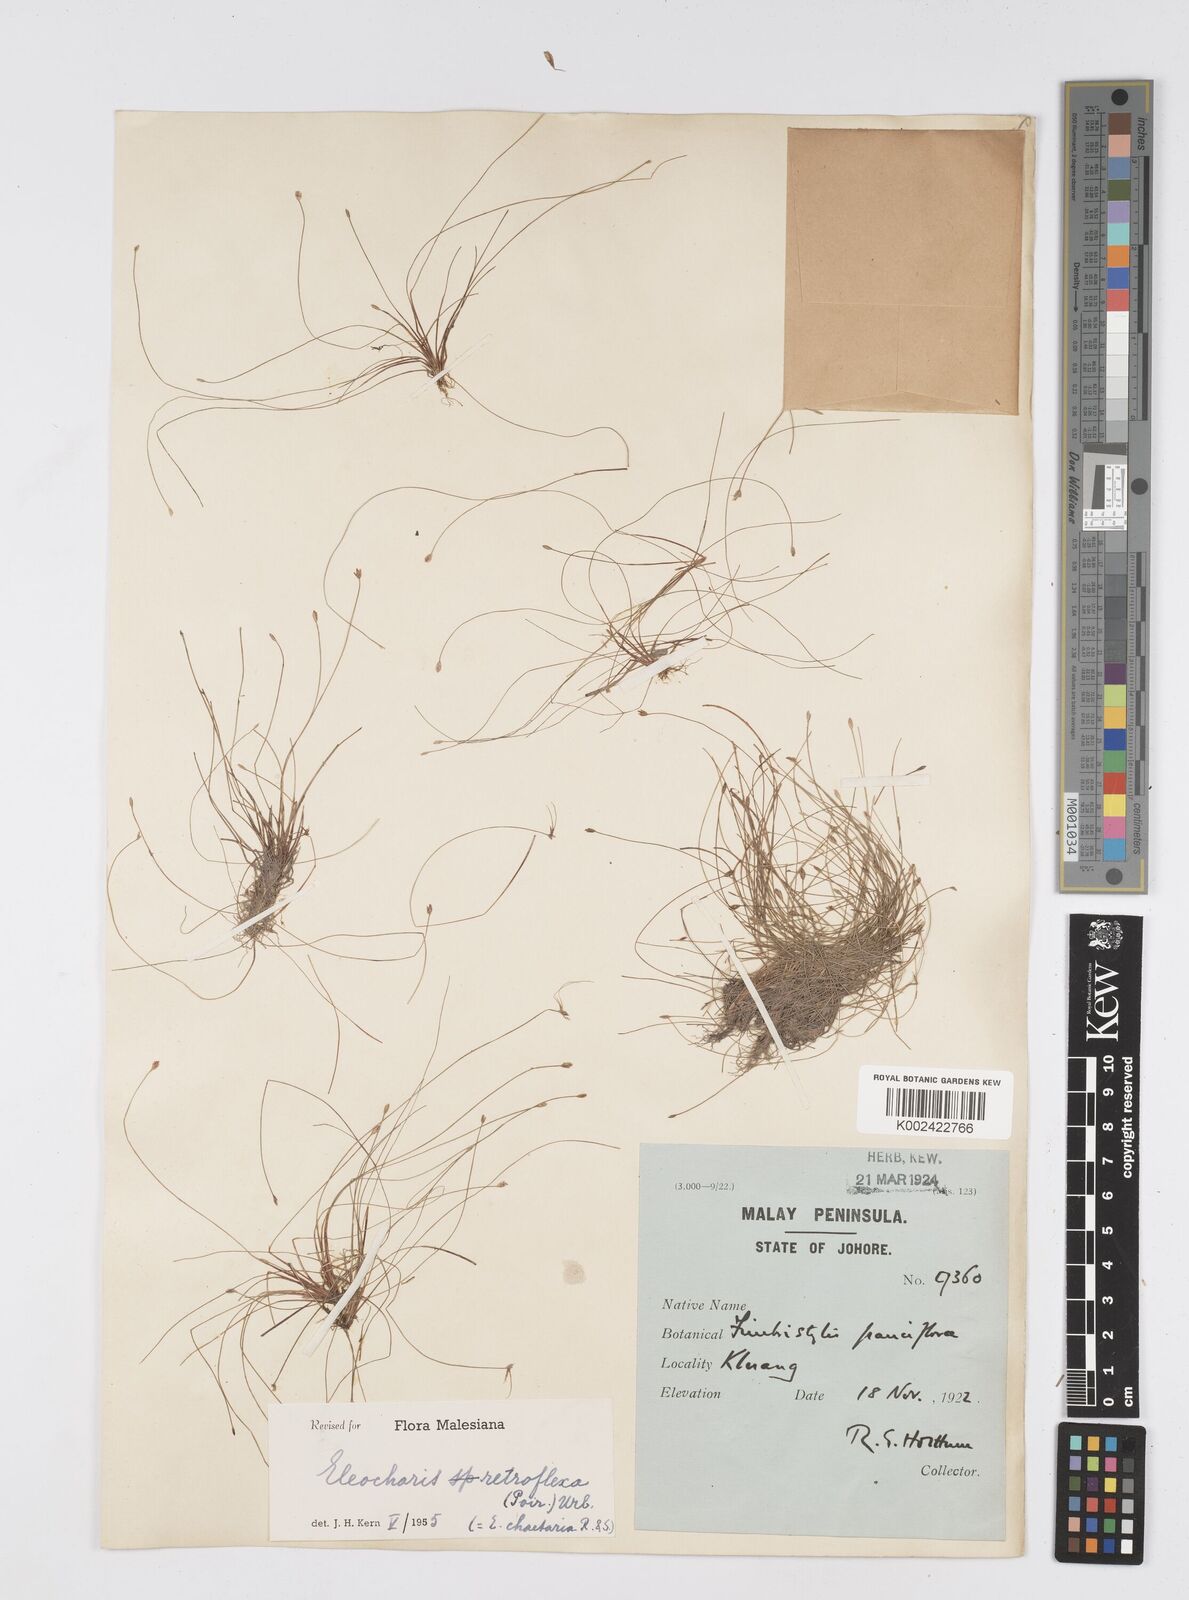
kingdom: Plantae
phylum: Tracheophyta
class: Liliopsida
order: Poales
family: Cyperaceae
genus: Eleocharis
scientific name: Eleocharis retroflexa
